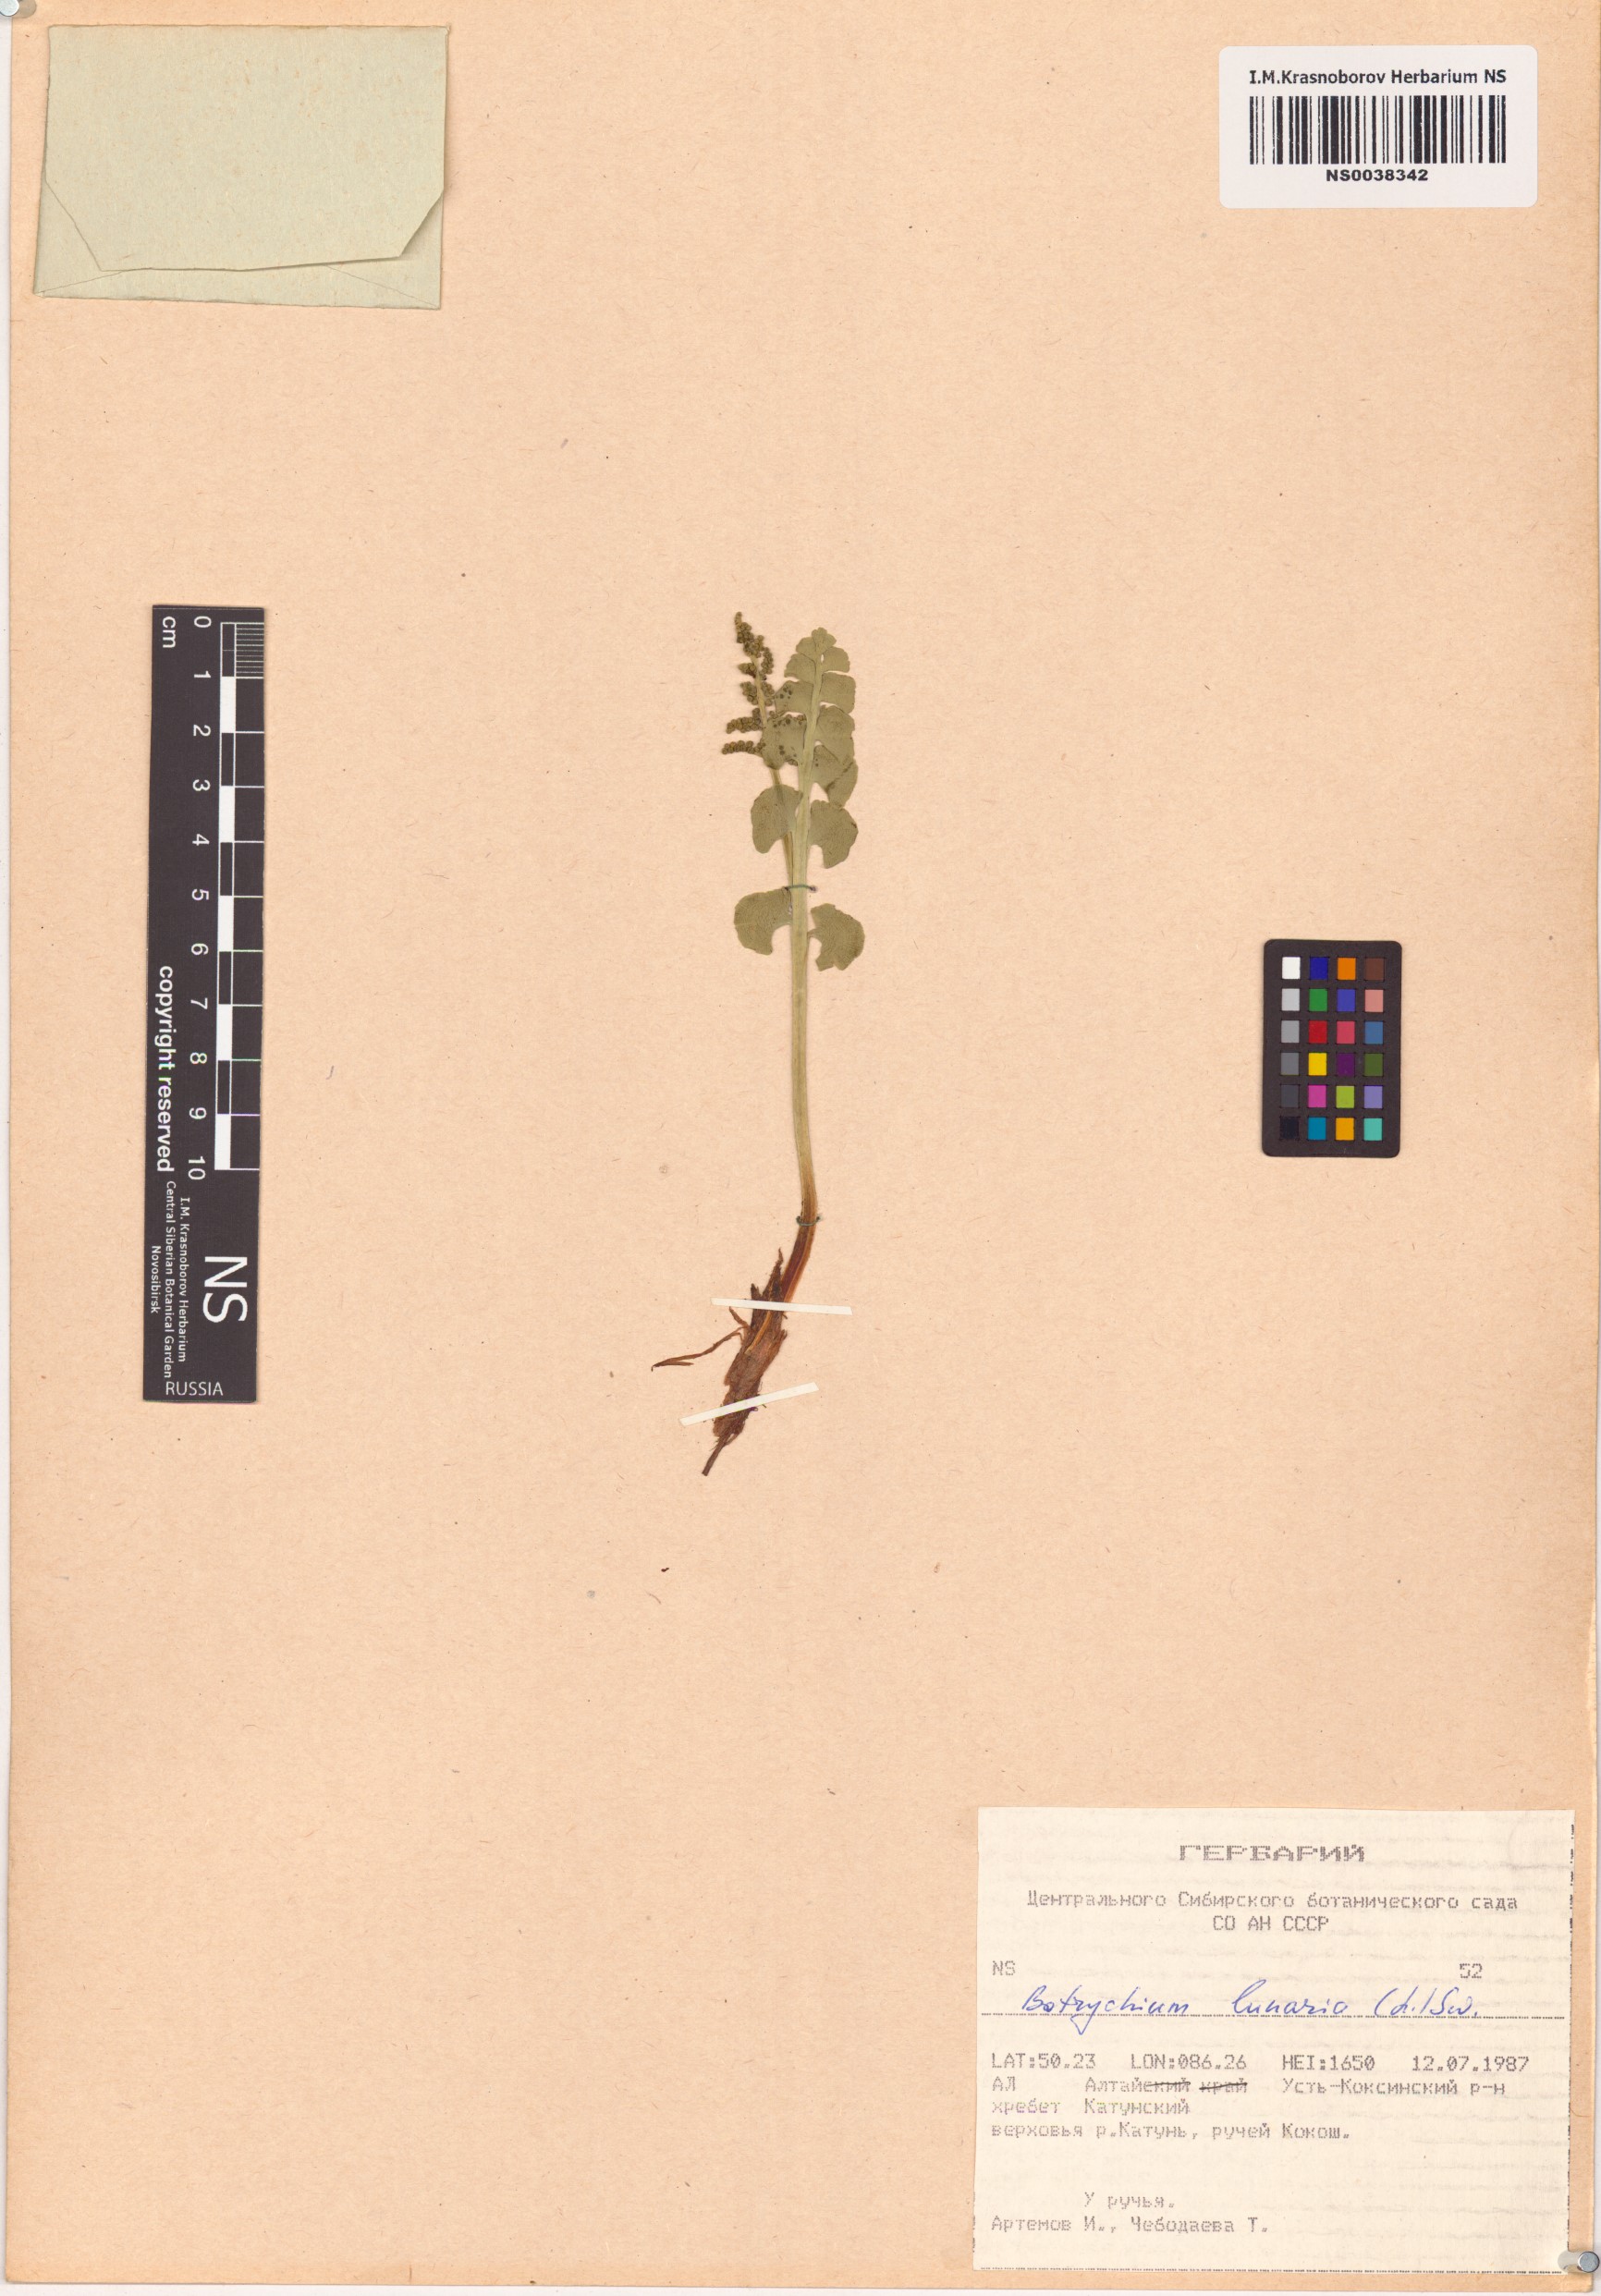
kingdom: Plantae
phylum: Tracheophyta
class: Polypodiopsida
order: Ophioglossales
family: Ophioglossaceae
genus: Botrychium
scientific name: Botrychium lunaria
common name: Moonwort
